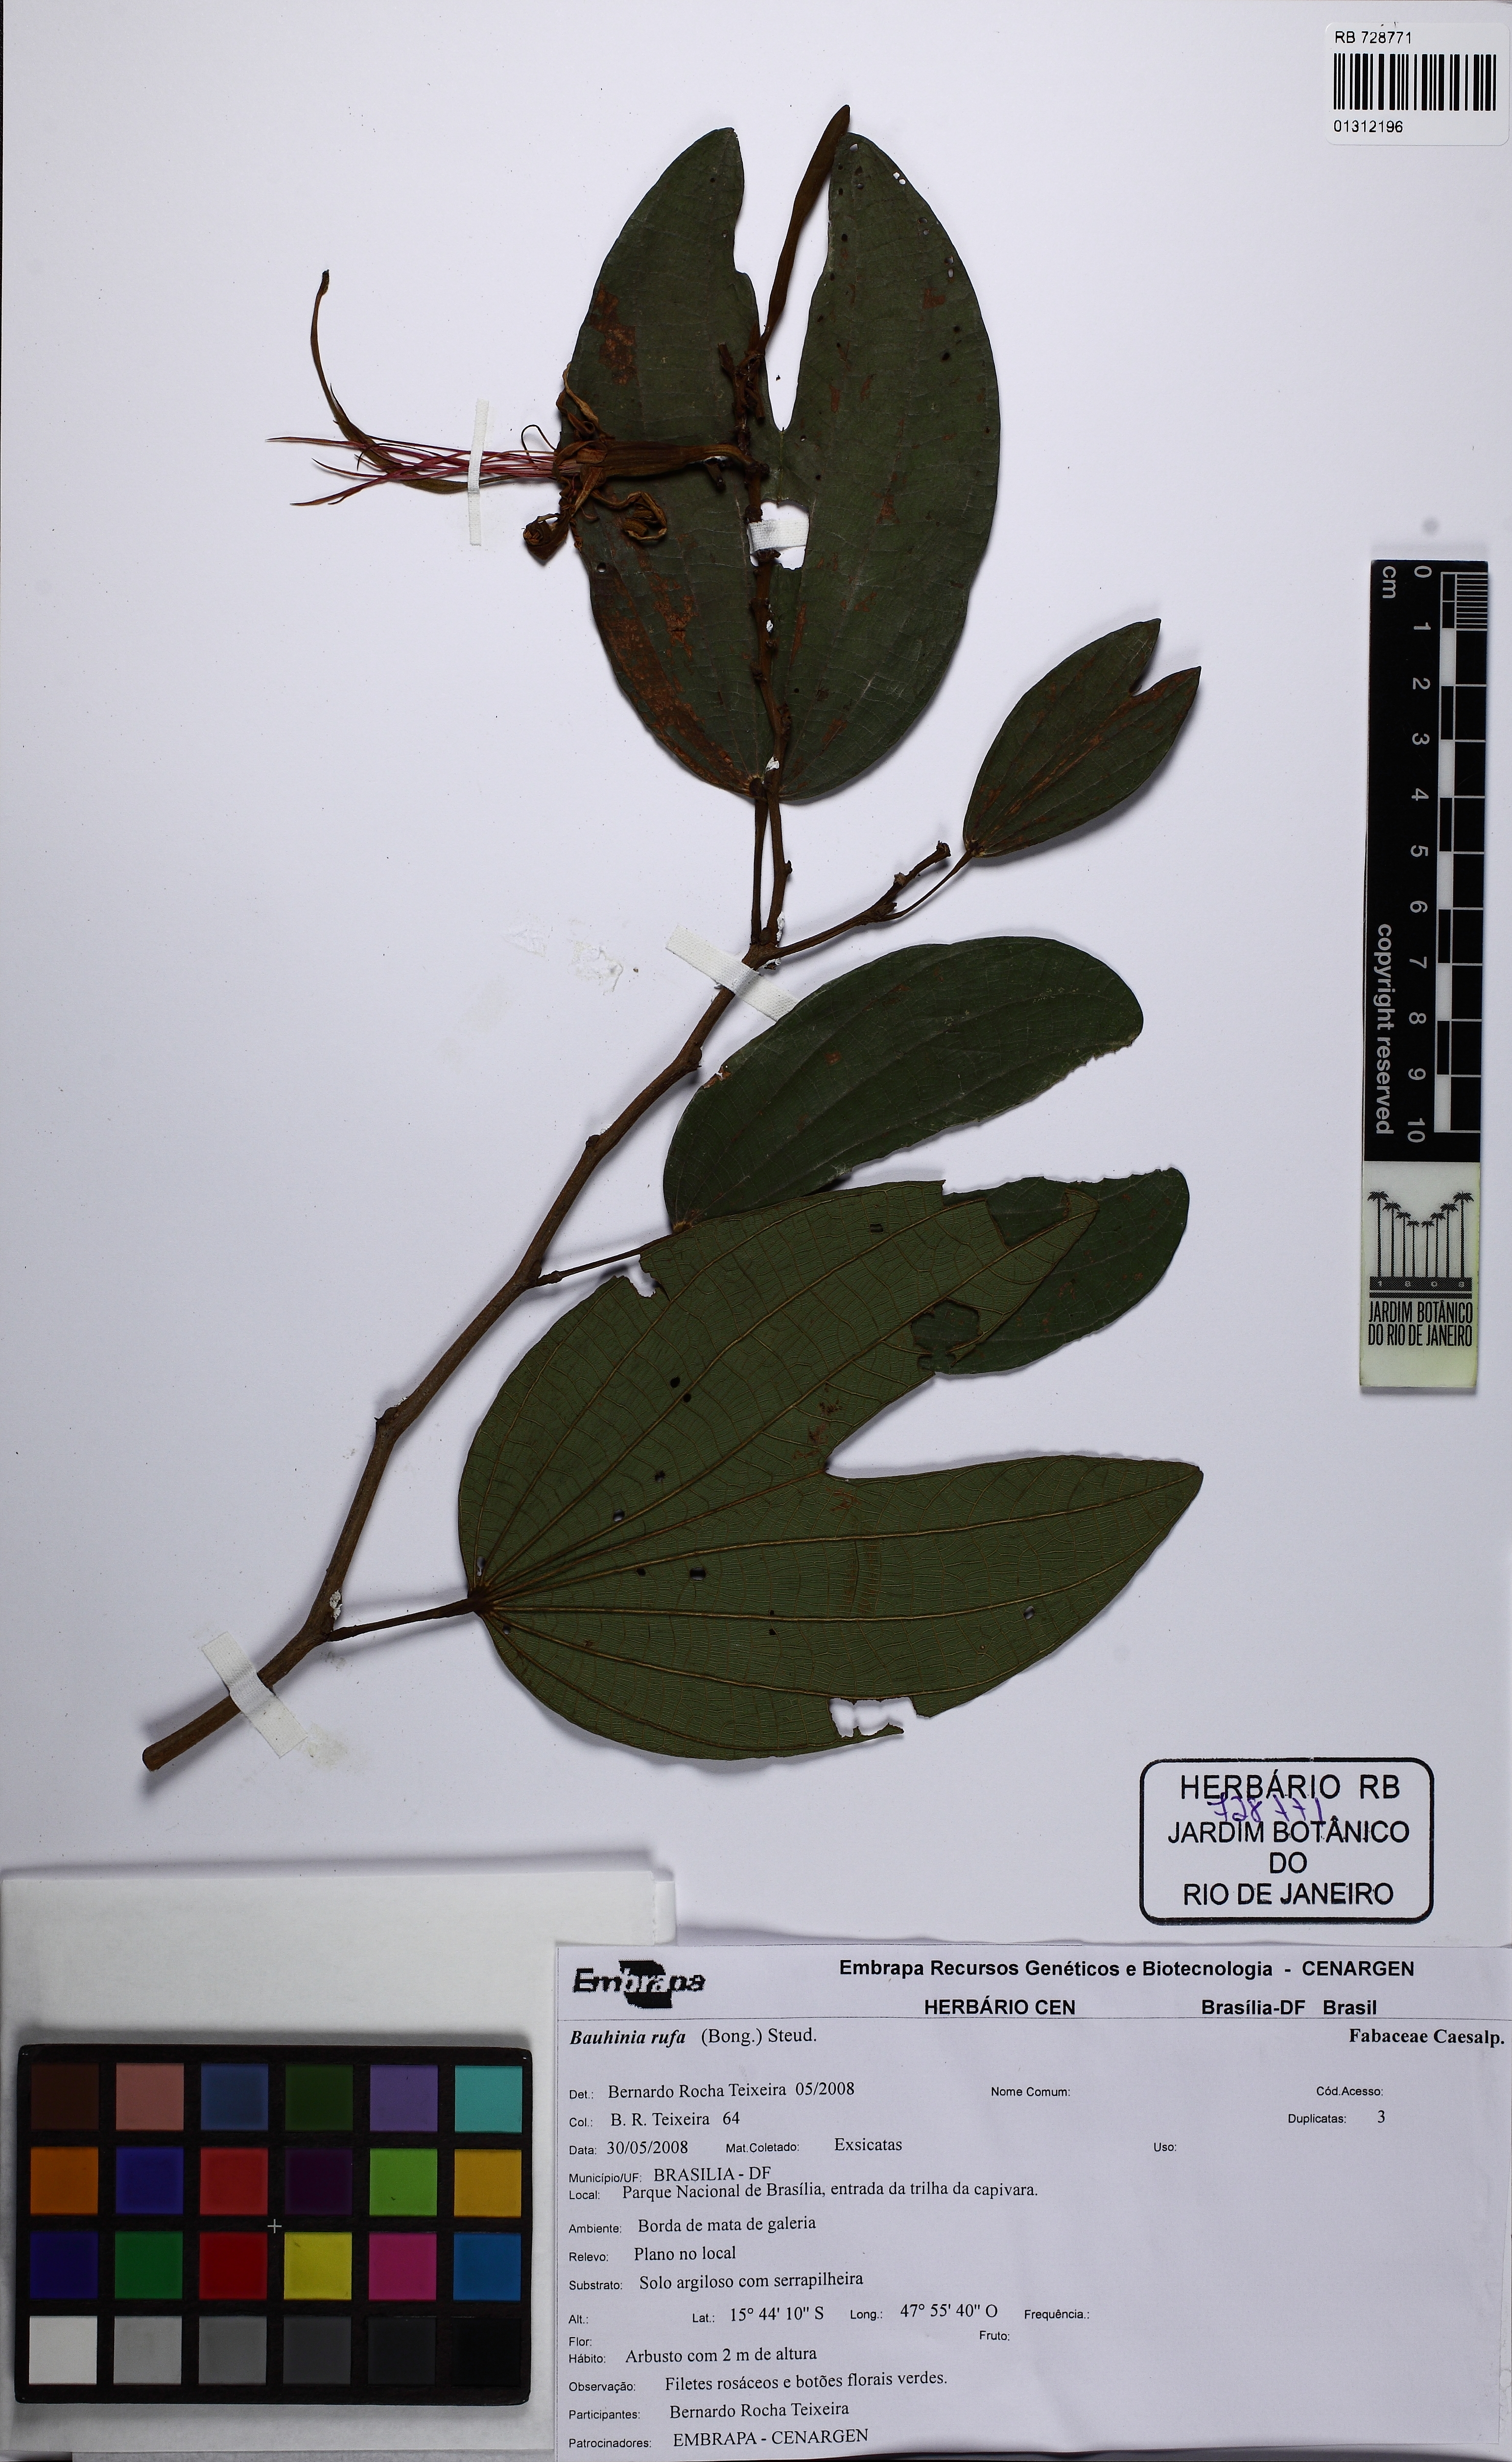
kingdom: Plantae
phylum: Tracheophyta
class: Magnoliopsida
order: Fabales
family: Fabaceae
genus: Bauhinia
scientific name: Bauhinia rufa
